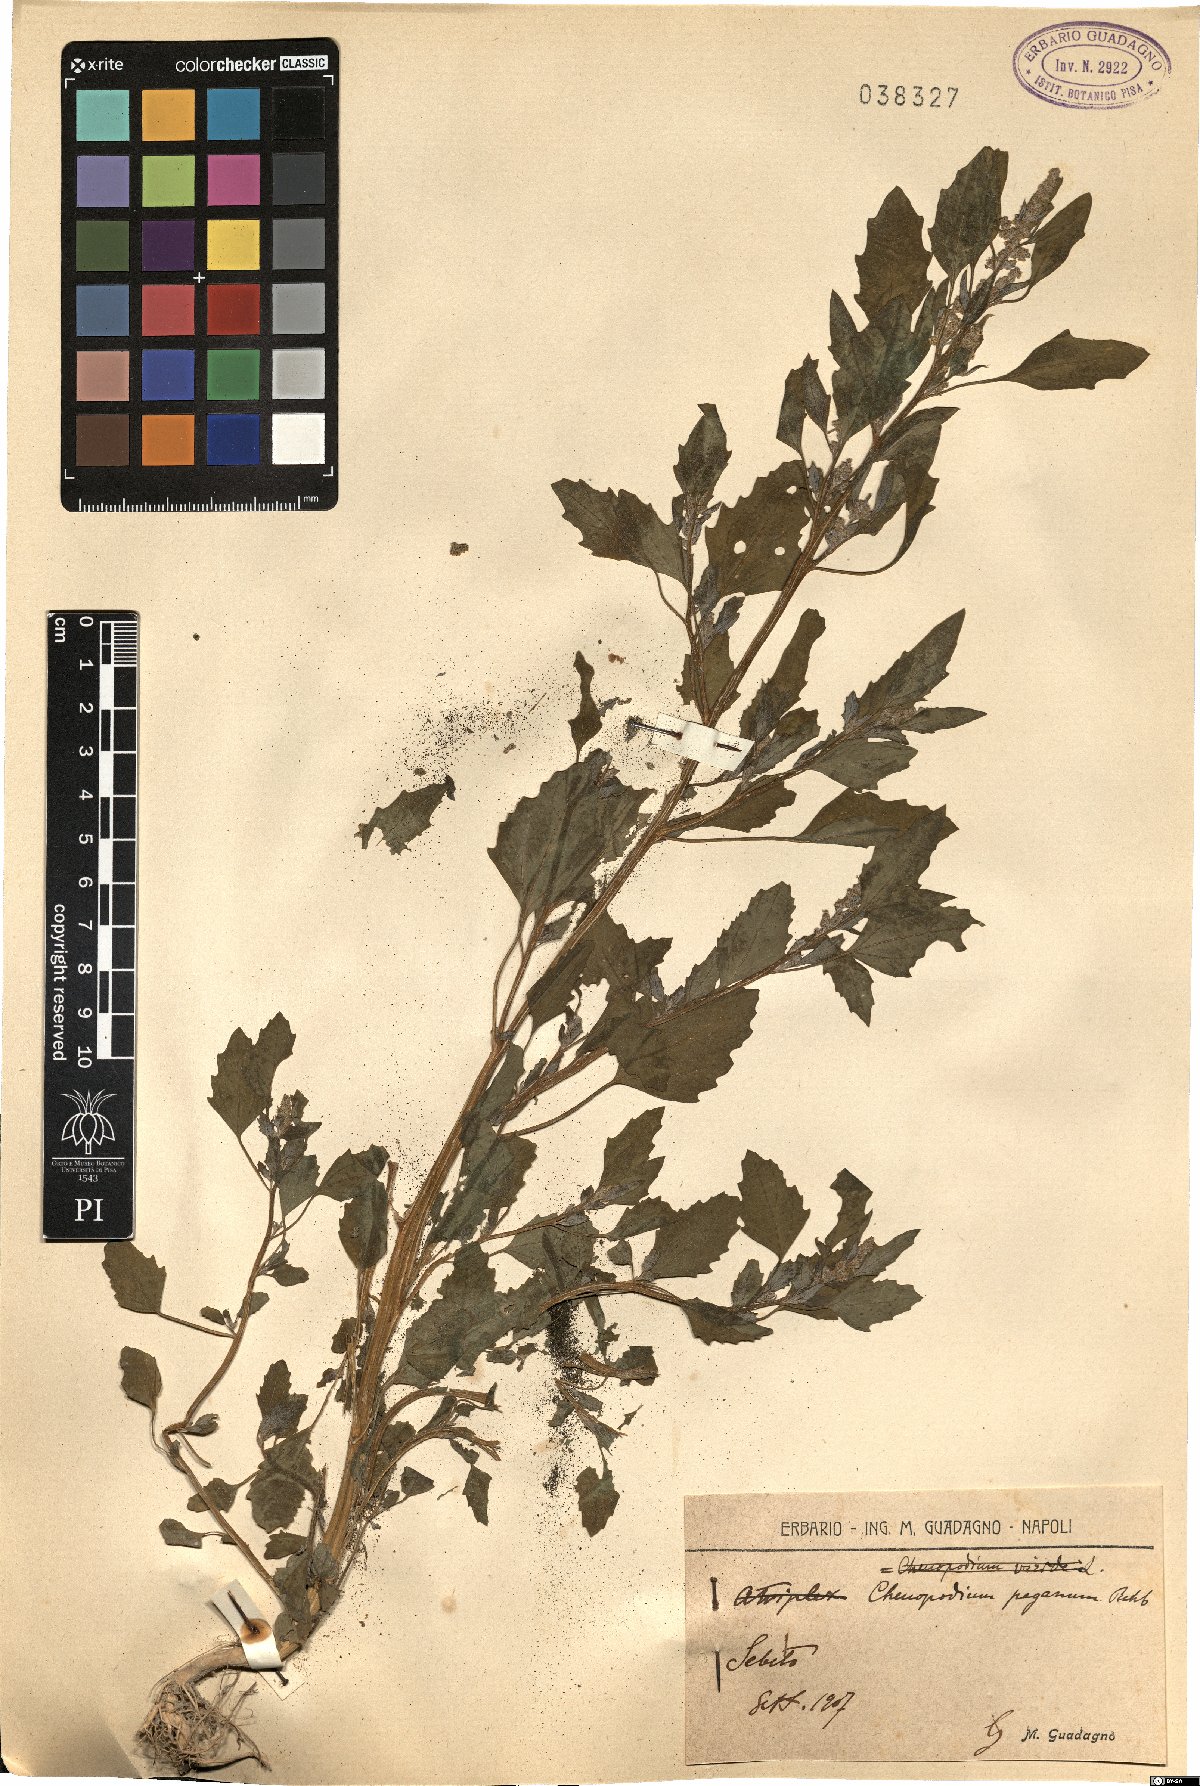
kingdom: Plantae
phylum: Tracheophyta
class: Magnoliopsida
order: Caryophyllales
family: Amaranthaceae
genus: Chenopodium
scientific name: Chenopodium album
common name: Fat-hen
